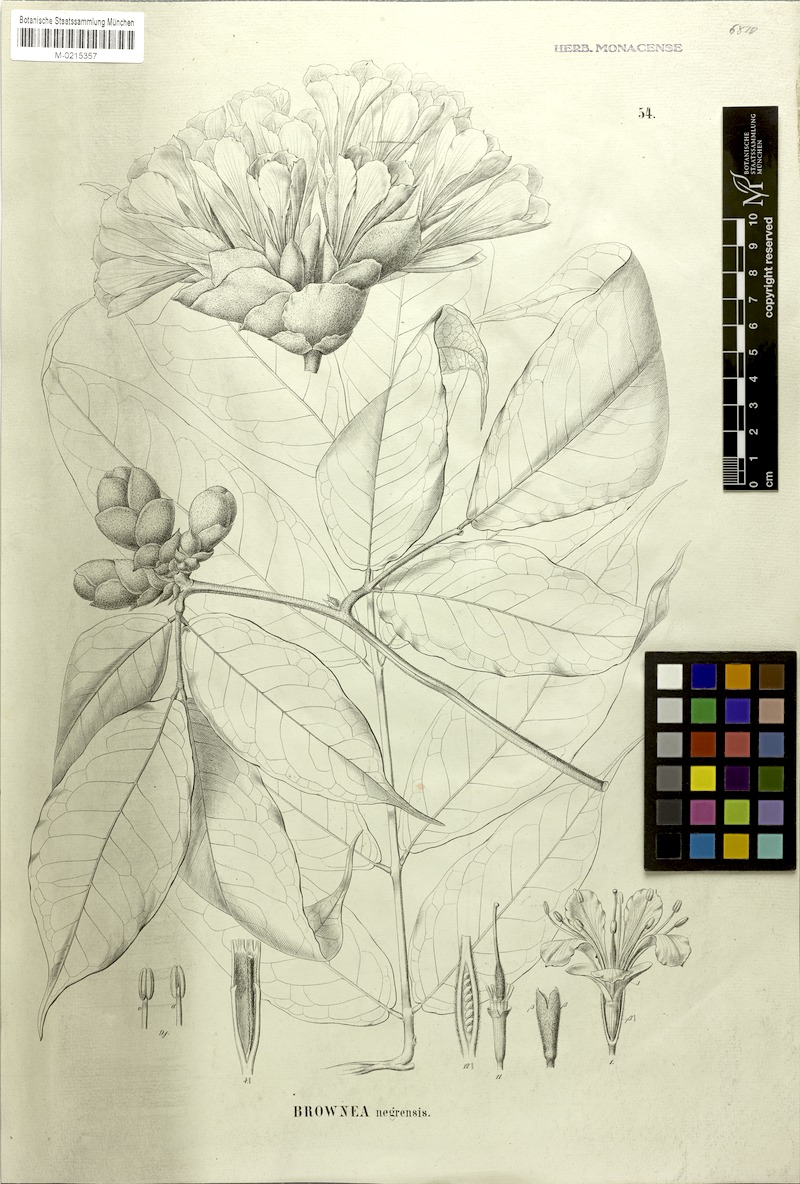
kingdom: Plantae
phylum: Tracheophyta
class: Magnoliopsida
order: Fabales
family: Fabaceae
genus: Brownea
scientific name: Brownea negrensis
